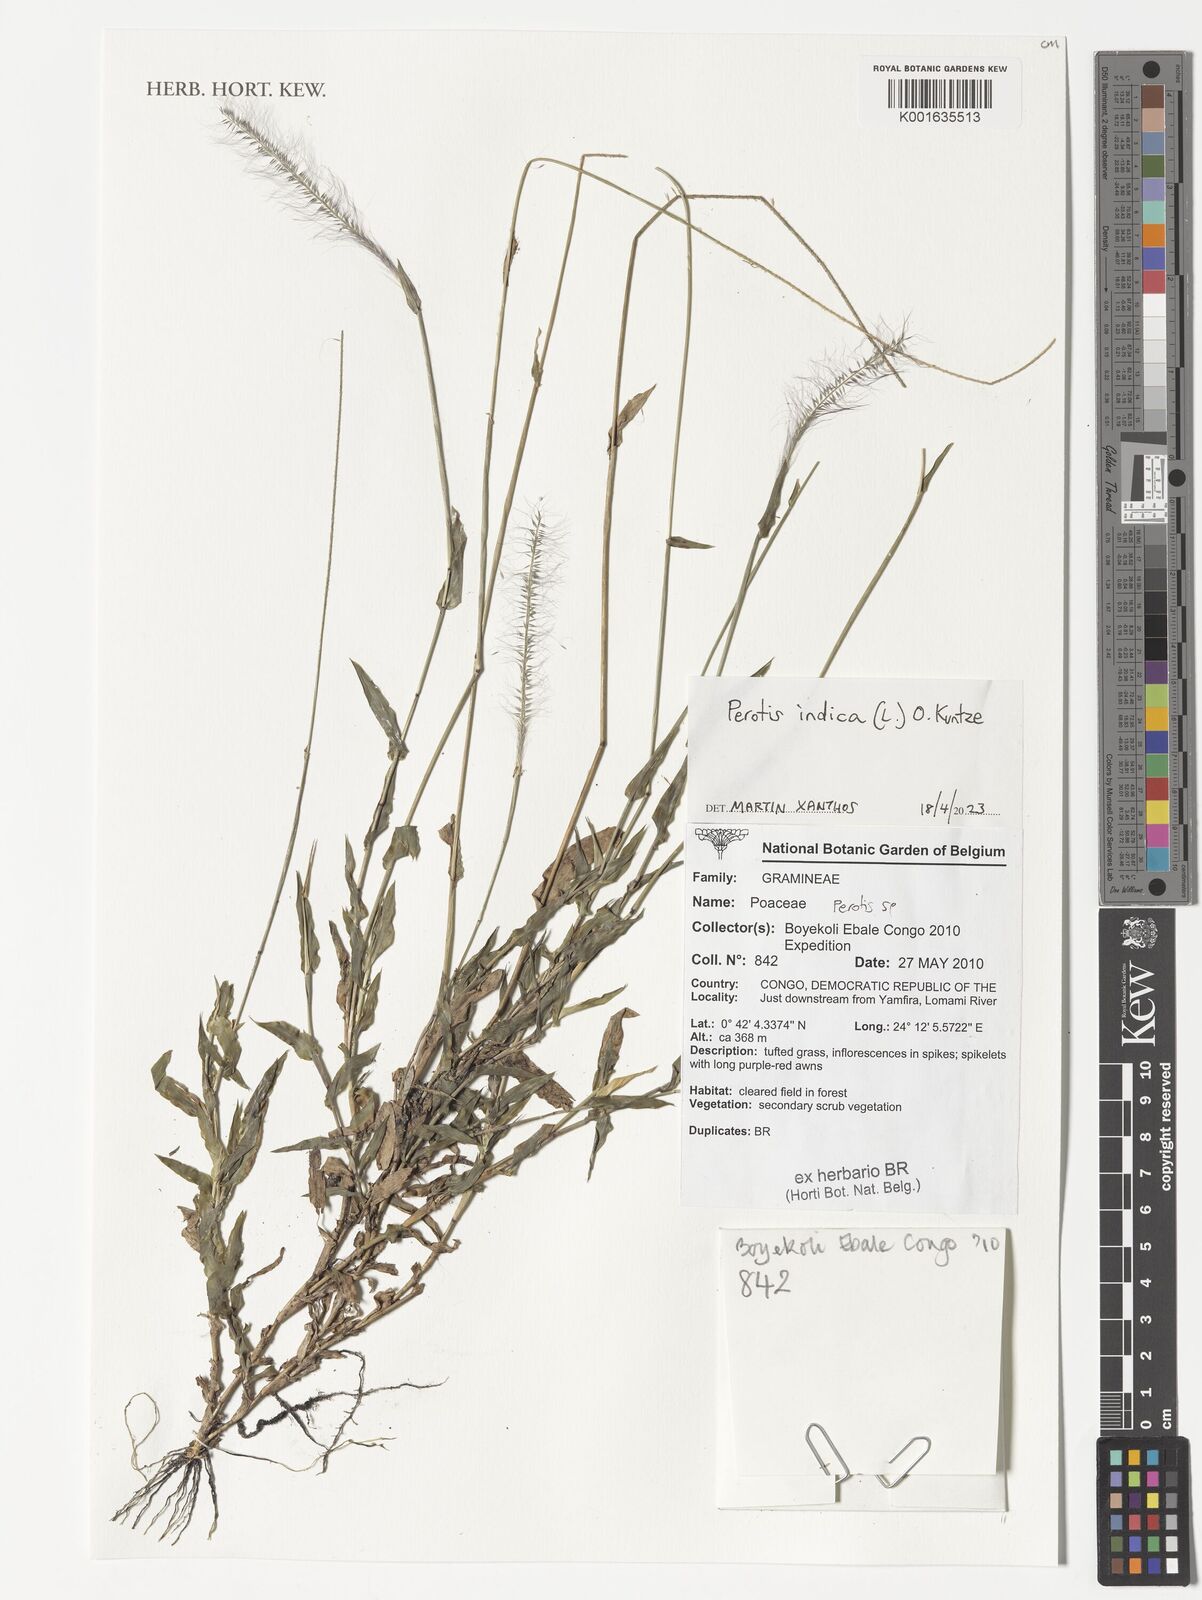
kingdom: Plantae
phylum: Tracheophyta
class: Liliopsida
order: Poales
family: Poaceae
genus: Perotis
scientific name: Perotis indica
